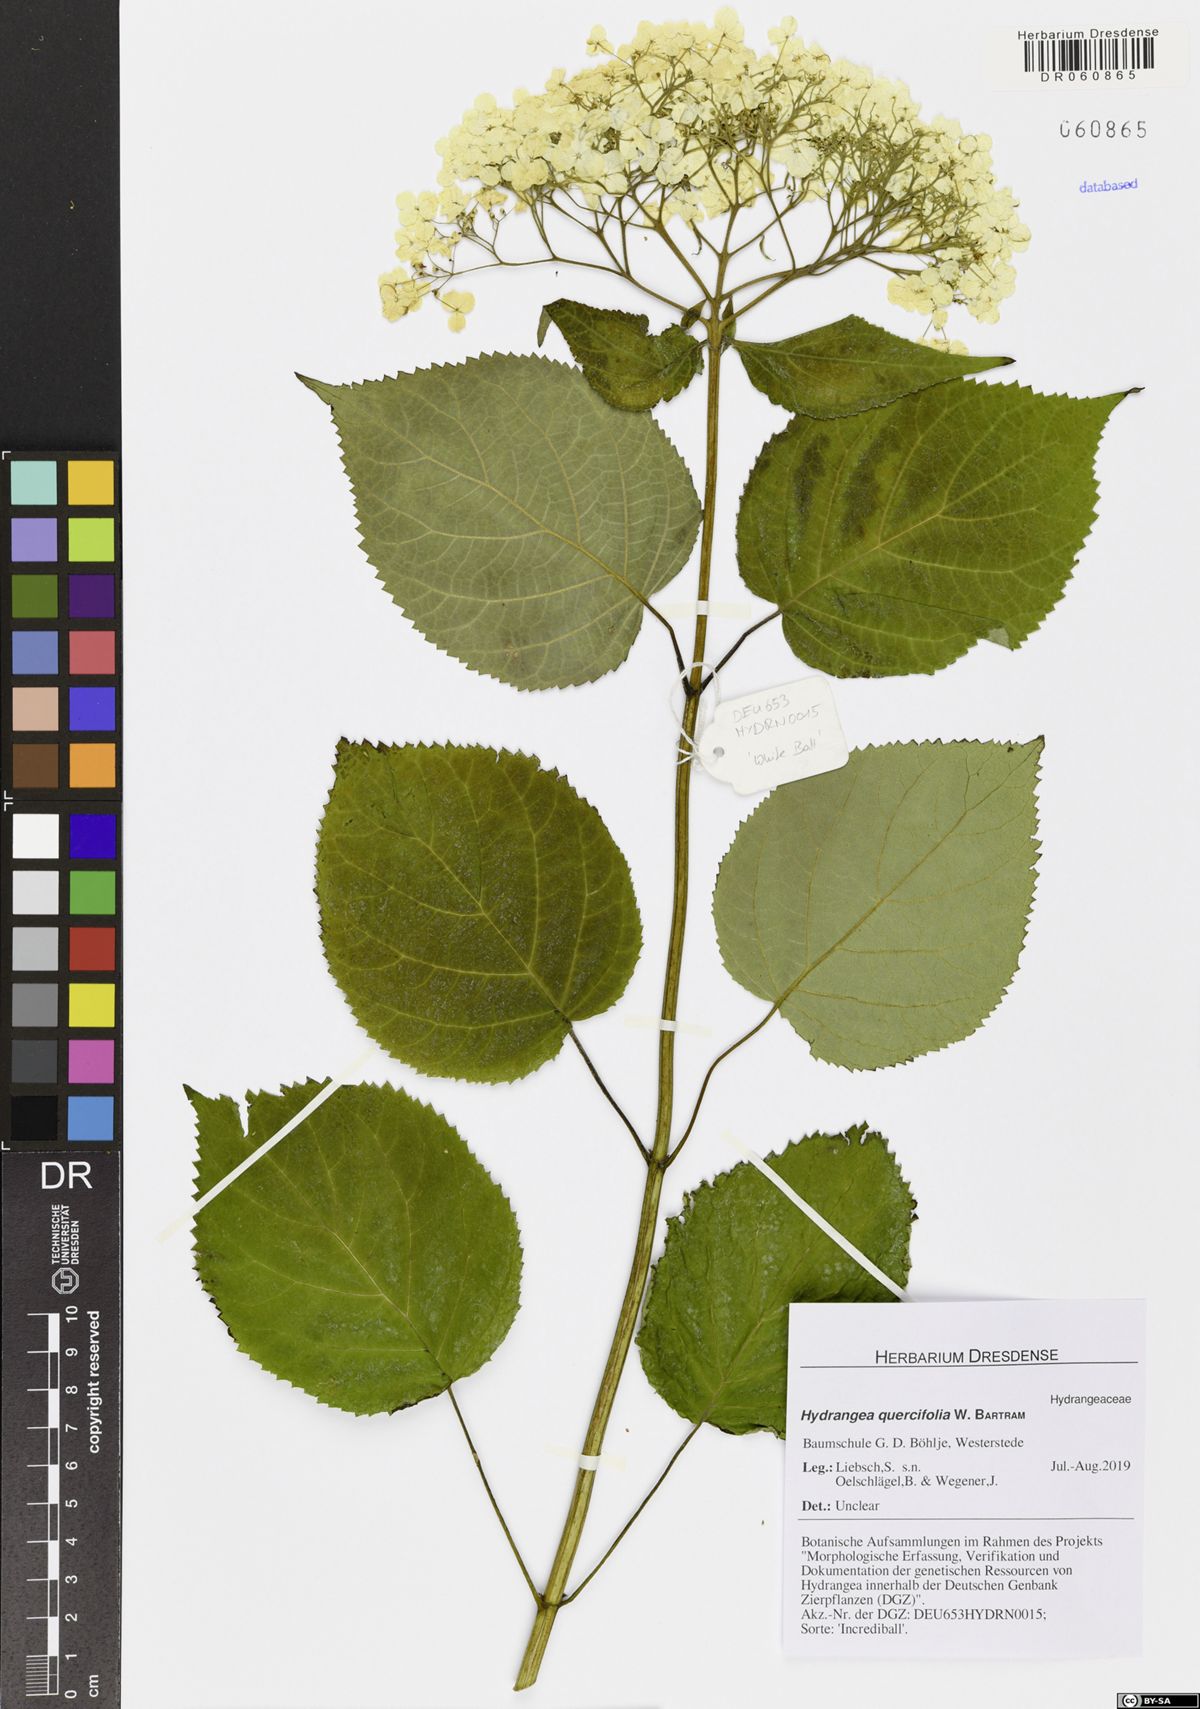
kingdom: Plantae
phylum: Tracheophyta
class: Magnoliopsida
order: Cornales
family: Hydrangeaceae
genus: Hydrangea
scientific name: Hydrangea quercifolia
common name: Oak-leaf hydrangea
